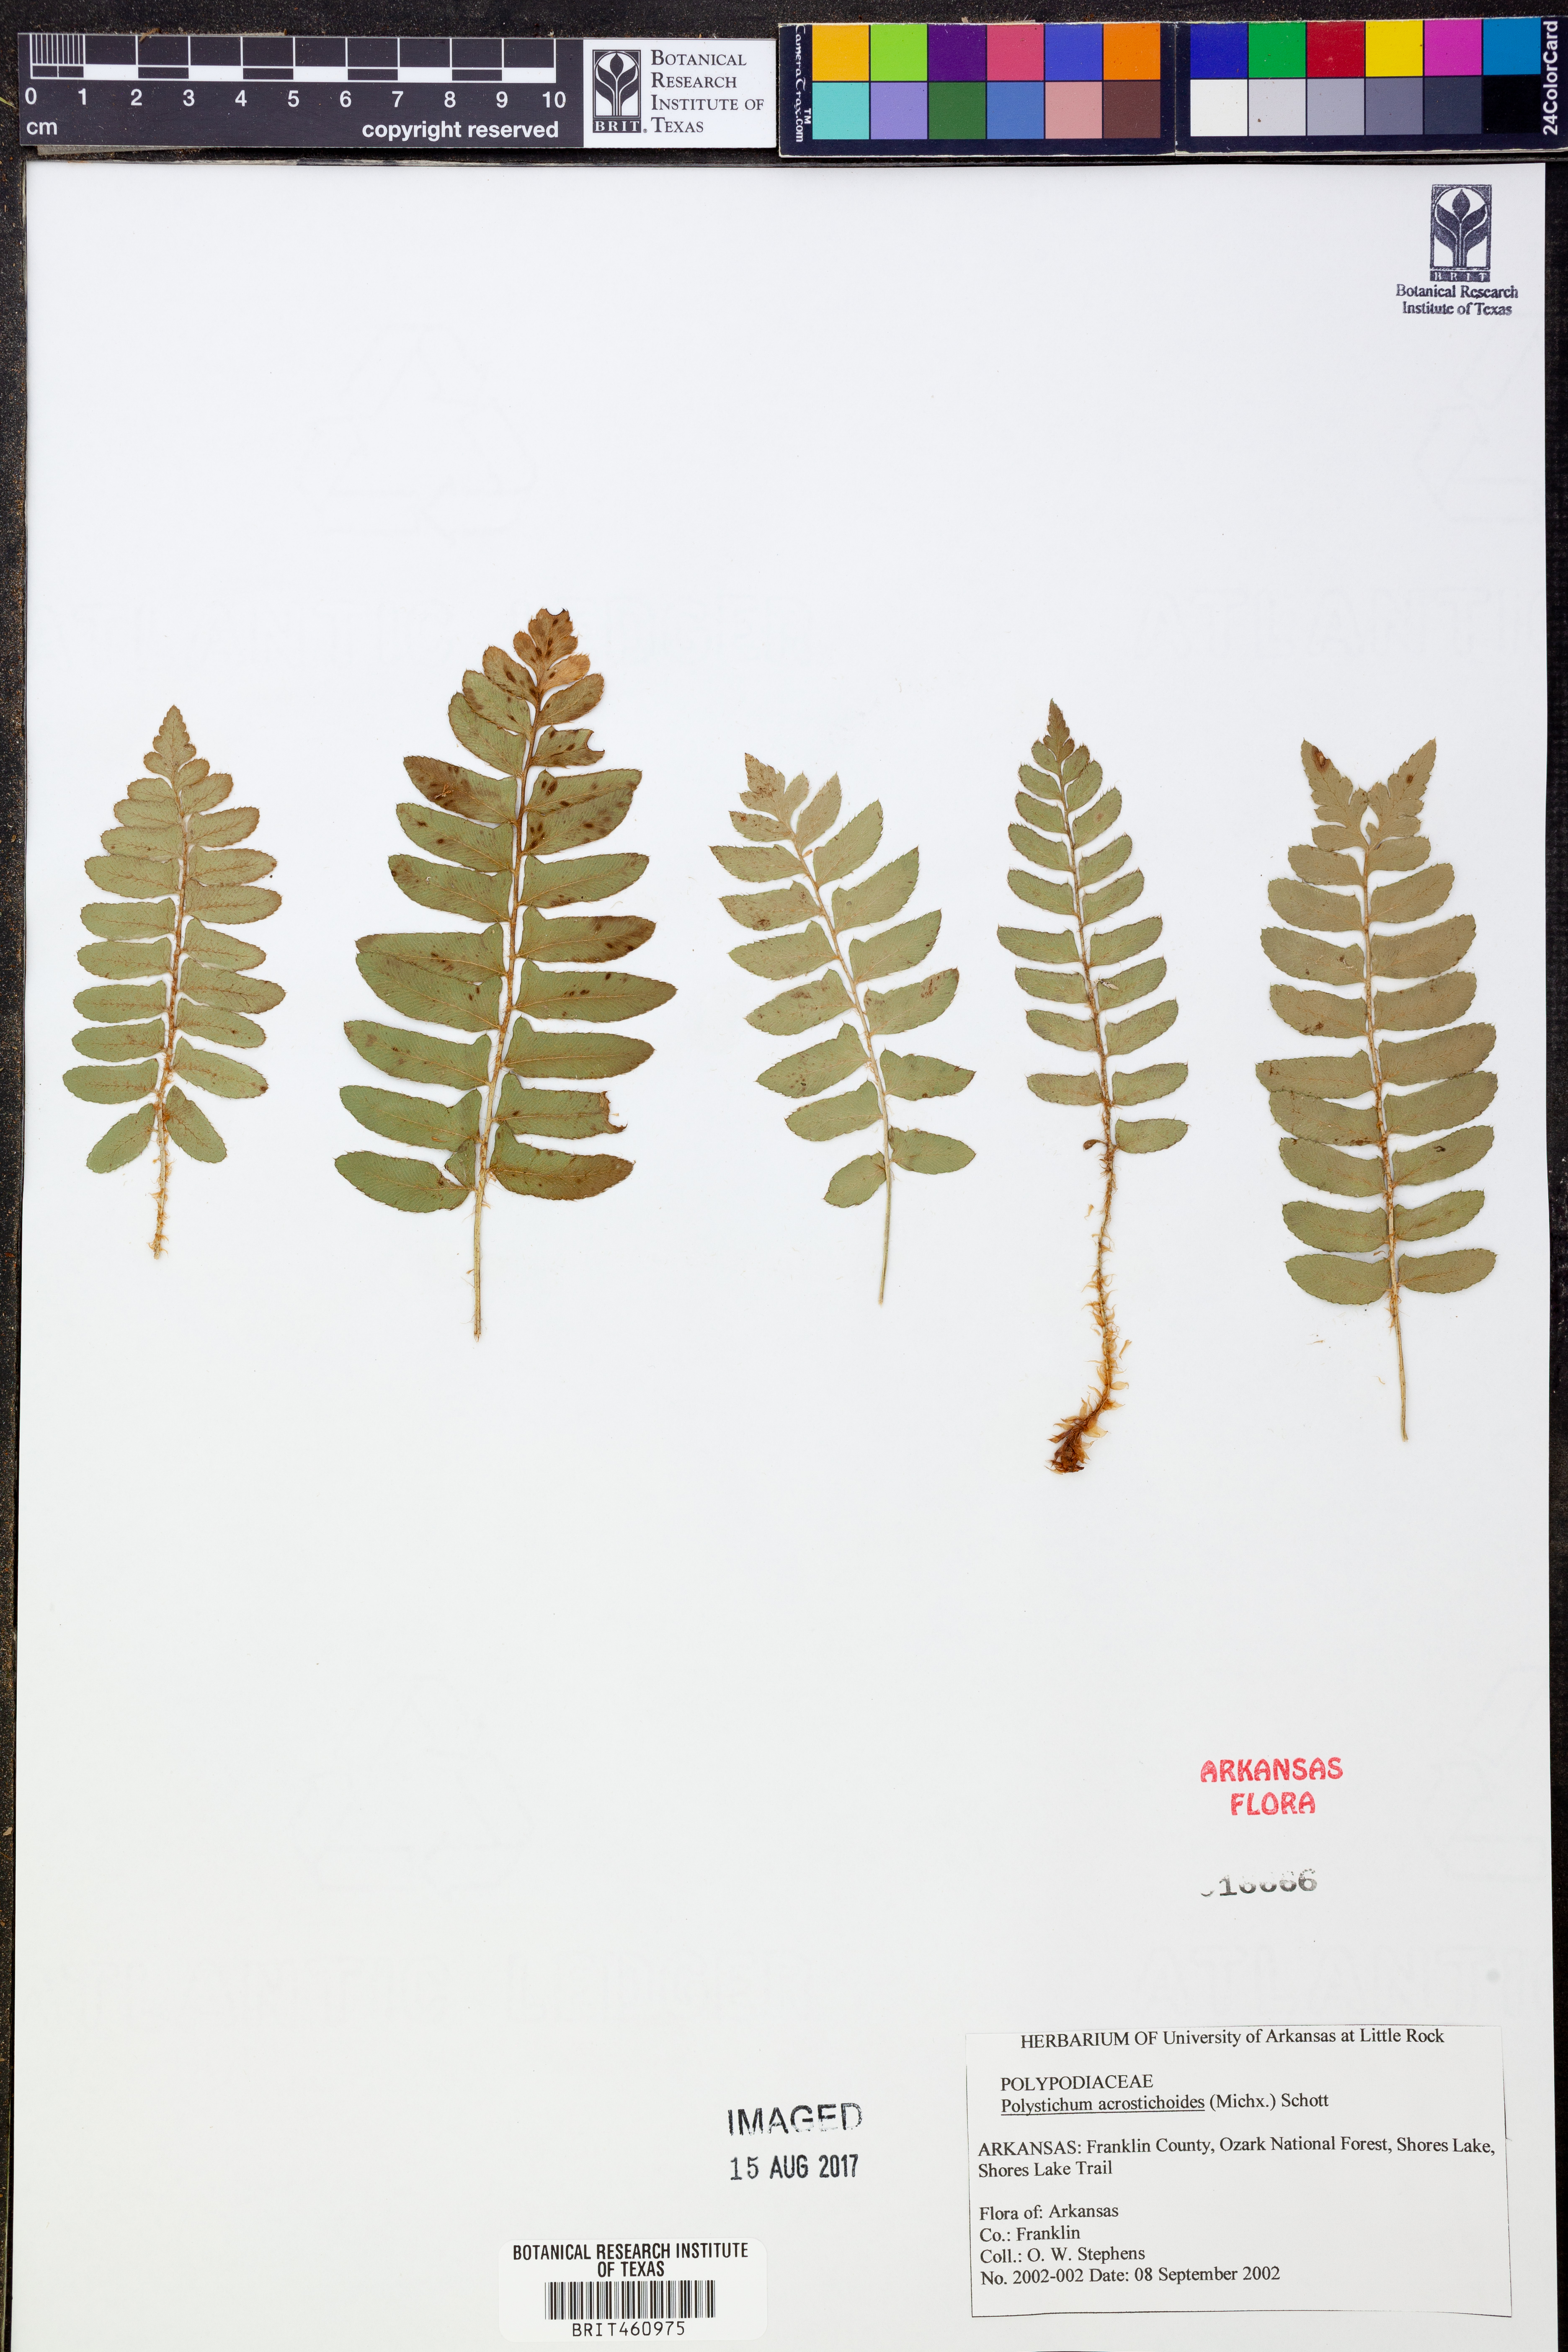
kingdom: Plantae
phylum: Tracheophyta
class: Polypodiopsida
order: Polypodiales
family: Dryopteridaceae
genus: Polystichum
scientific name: Polystichum acrostichoides
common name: Christmas fern
